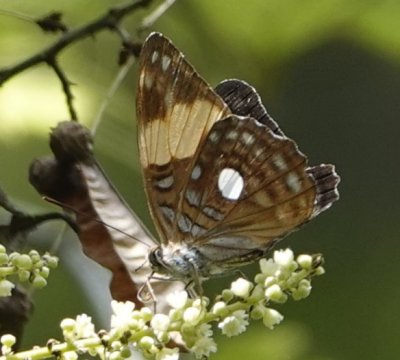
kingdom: Animalia
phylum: Arthropoda
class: Insecta
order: Lepidoptera
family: Nymphalidae
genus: Limenitis
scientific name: Limenitis leucophthalma
